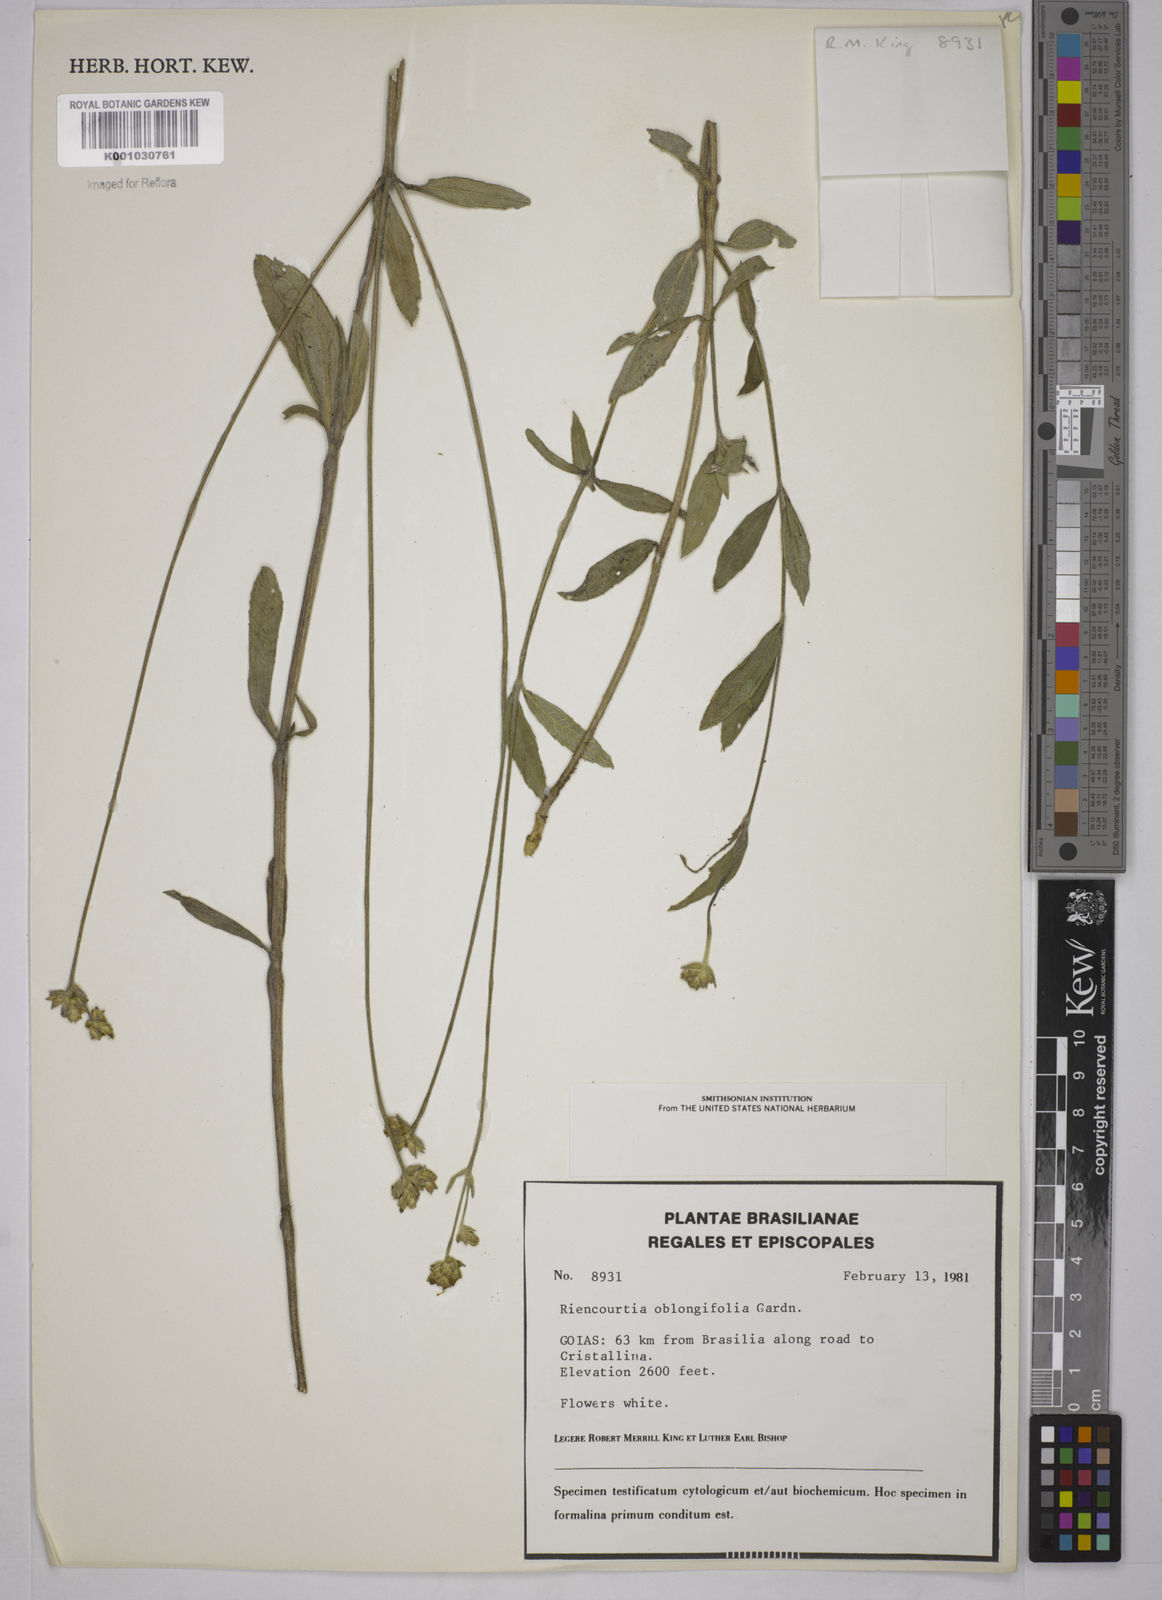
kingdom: Plantae
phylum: Tracheophyta
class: Magnoliopsida
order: Asterales
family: Asteraceae
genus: Riencourtia
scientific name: Riencourtia oblongifolia
